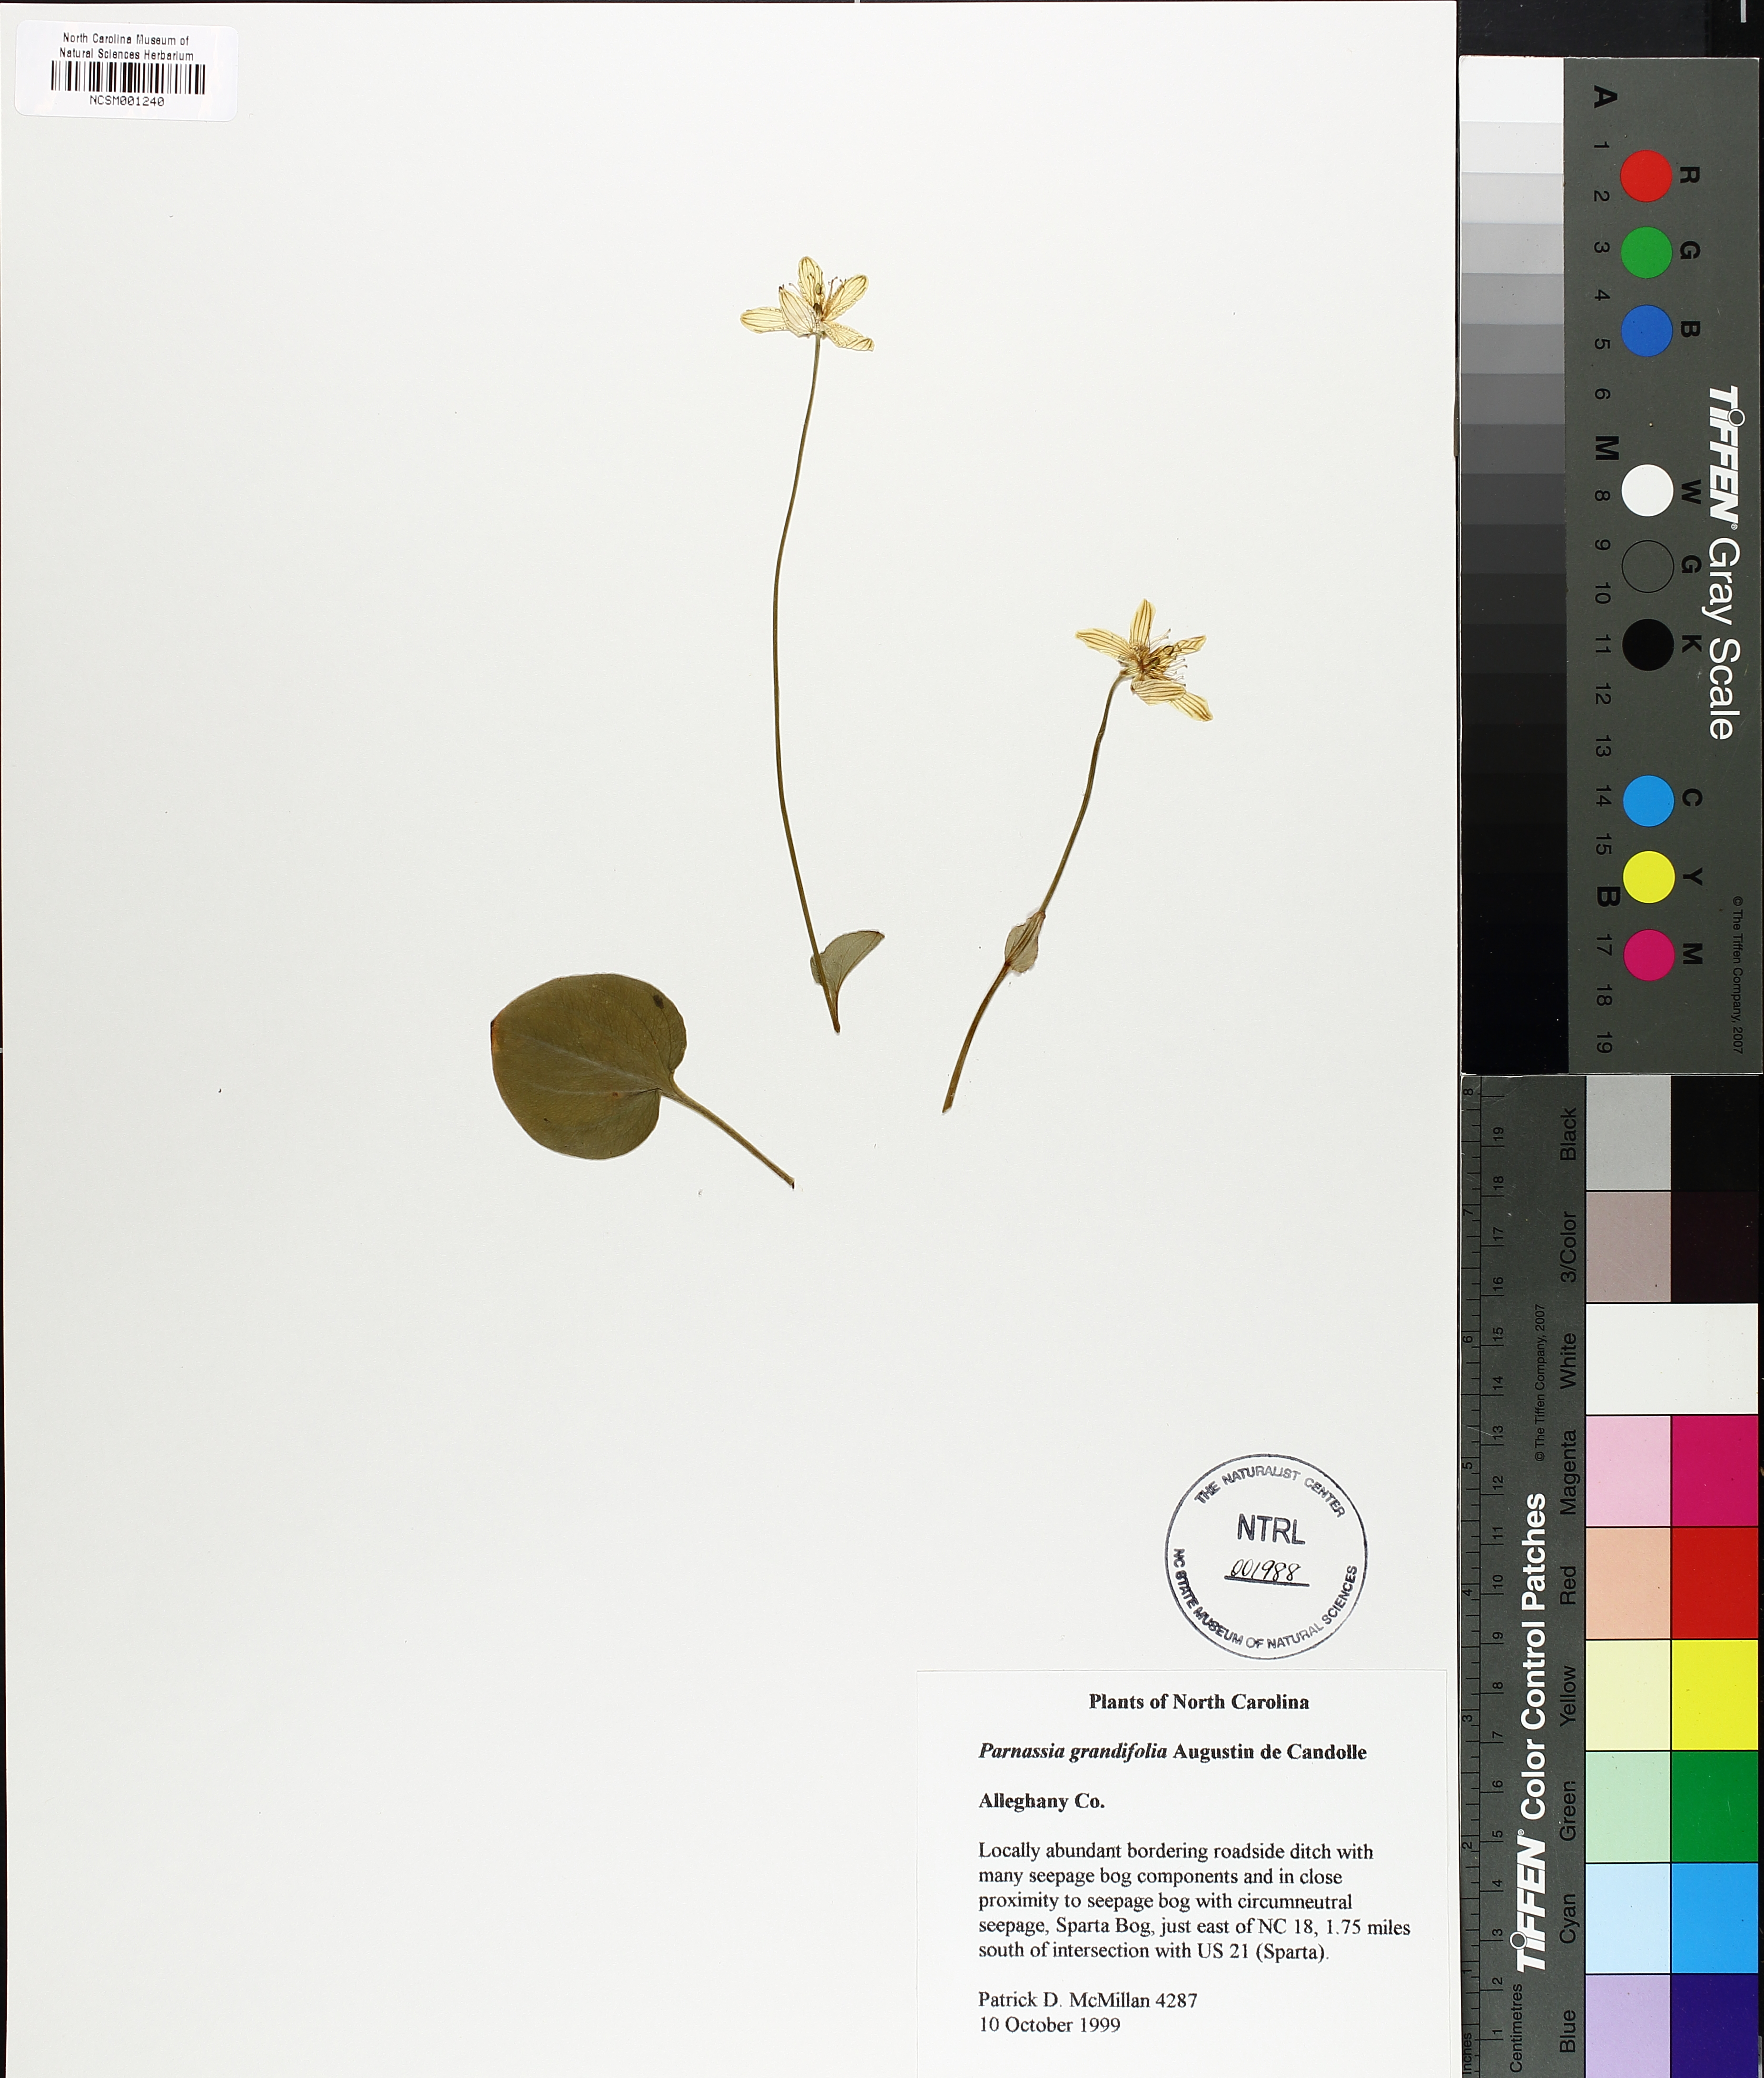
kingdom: Plantae
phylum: Tracheophyta
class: Magnoliopsida
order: Celastrales
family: Parnassiaceae
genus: Parnassia
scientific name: Parnassia grandifolia
